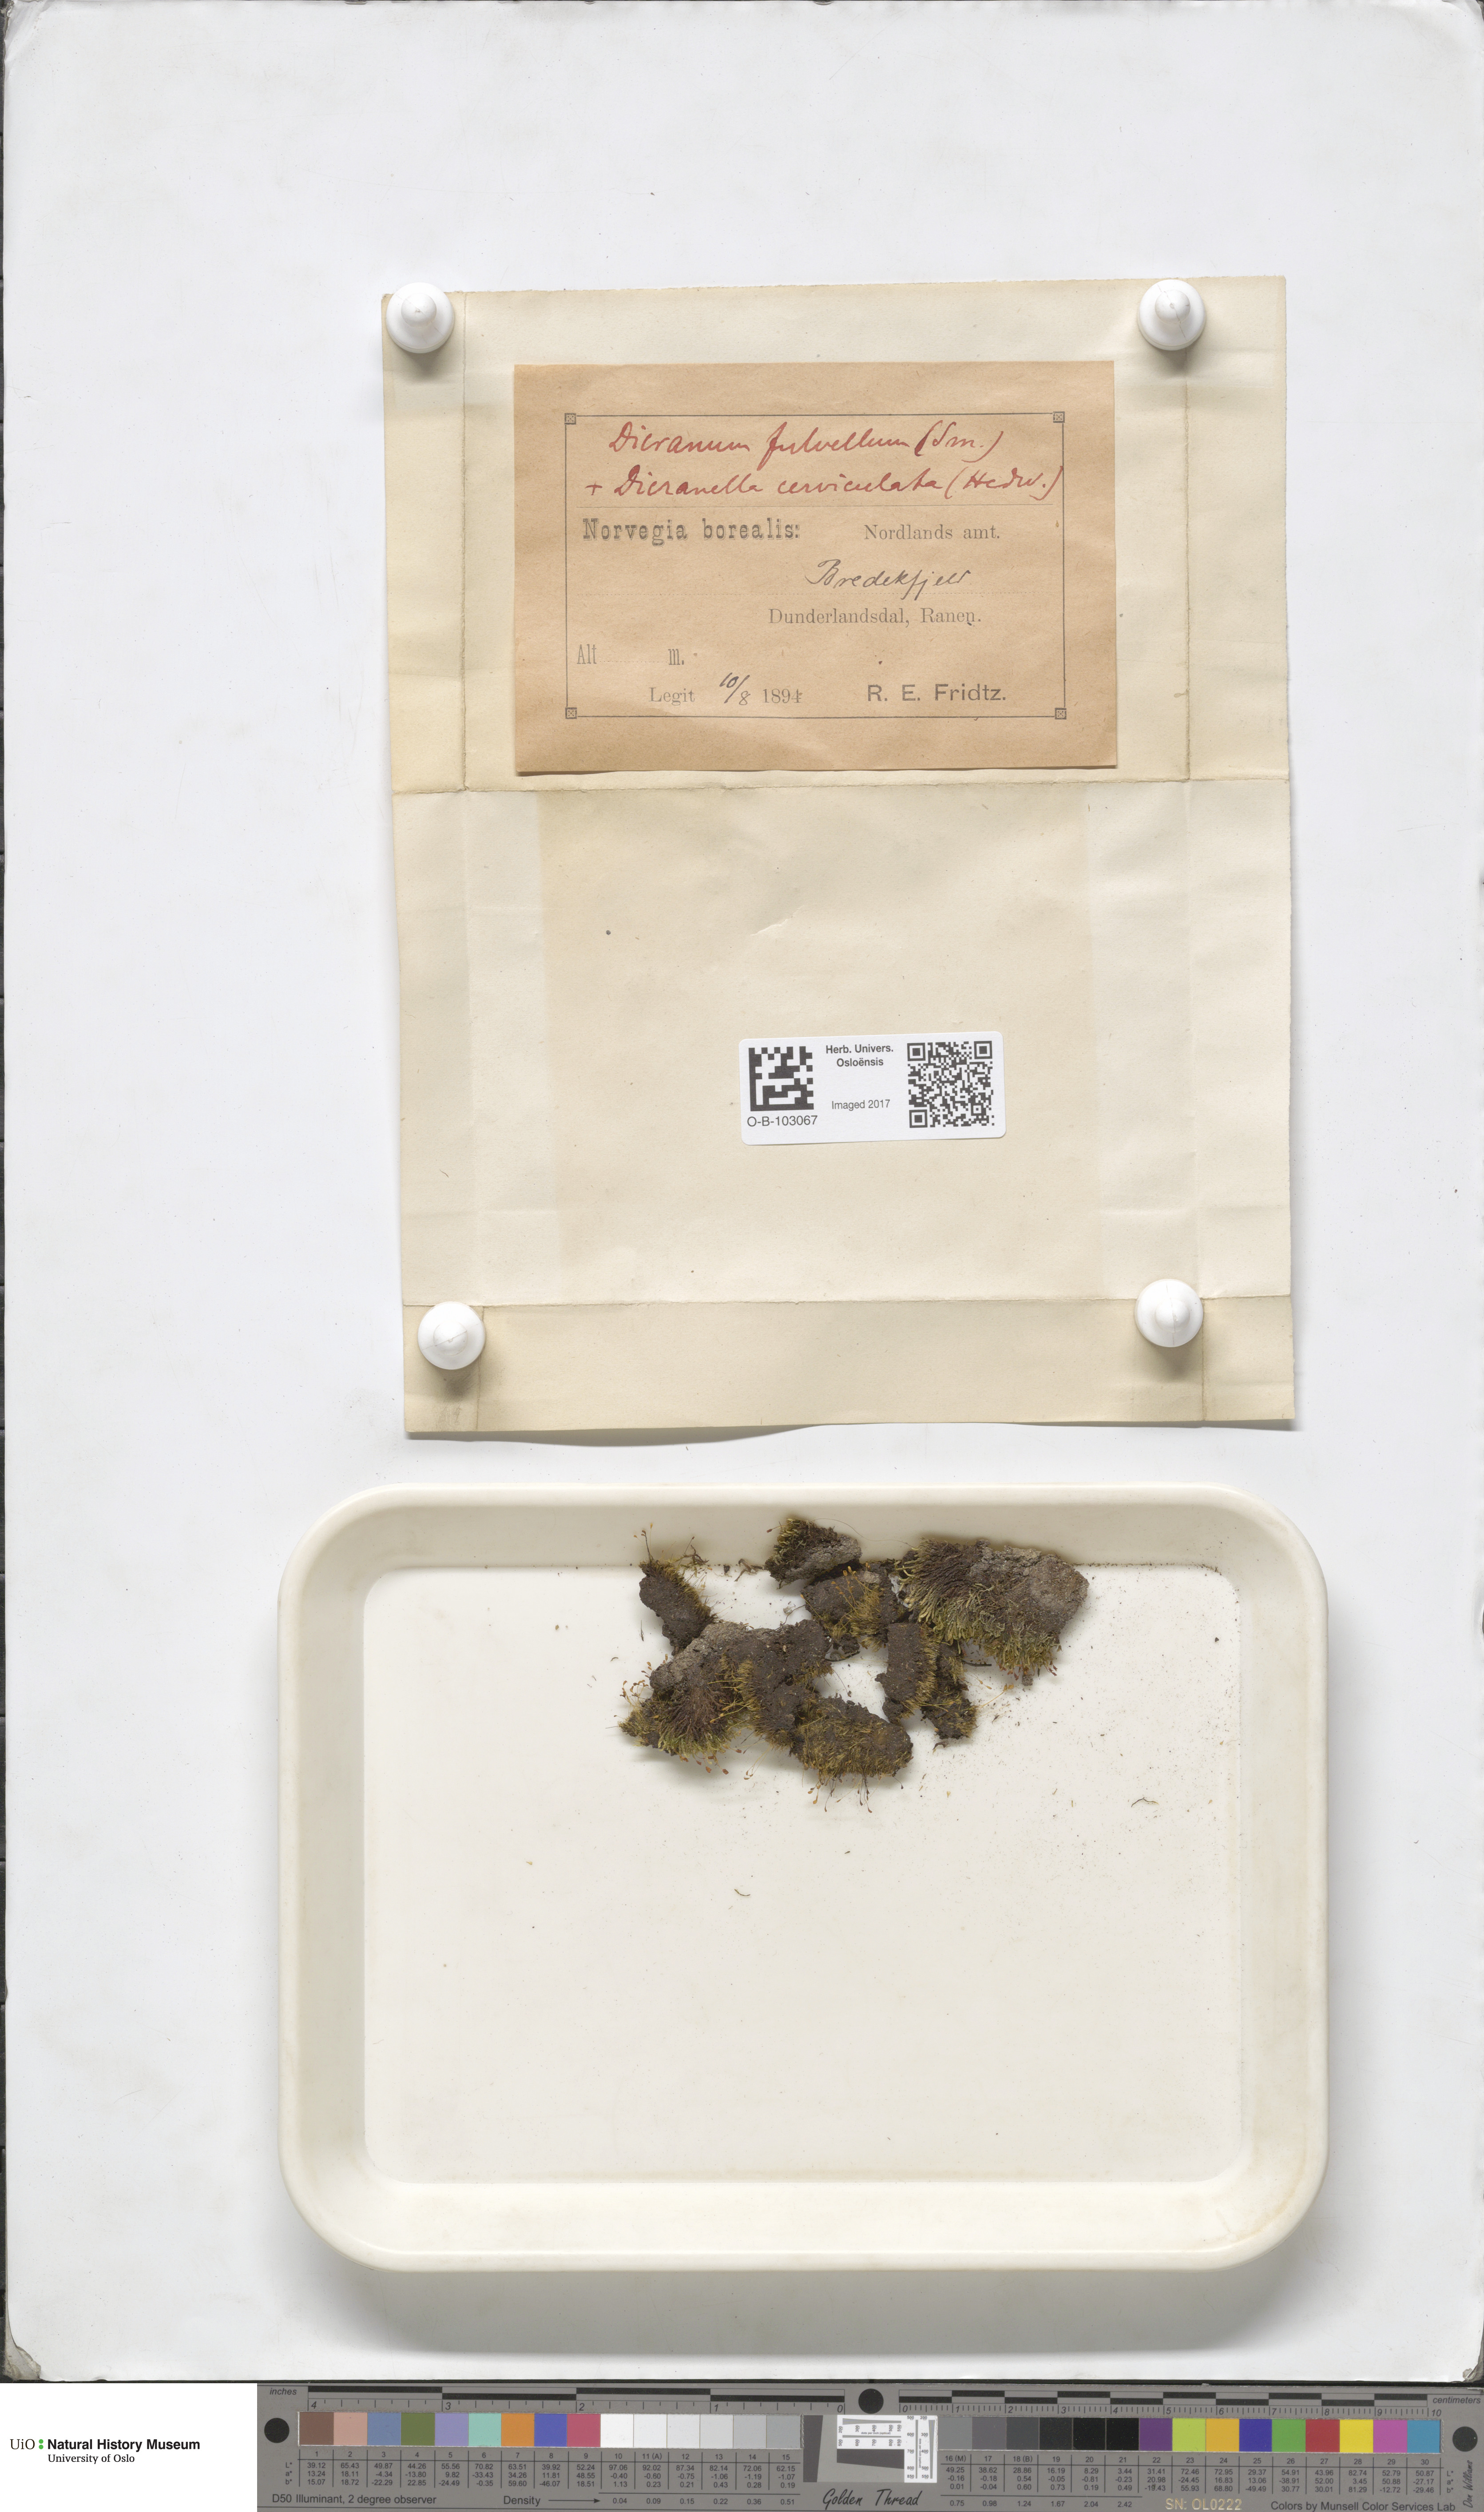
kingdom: Plantae
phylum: Bryophyta
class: Bryopsida
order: Dicranales
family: Rhabdoweisiaceae
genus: Arctoa
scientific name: Arctoa fulvella
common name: Tawny fork moss
